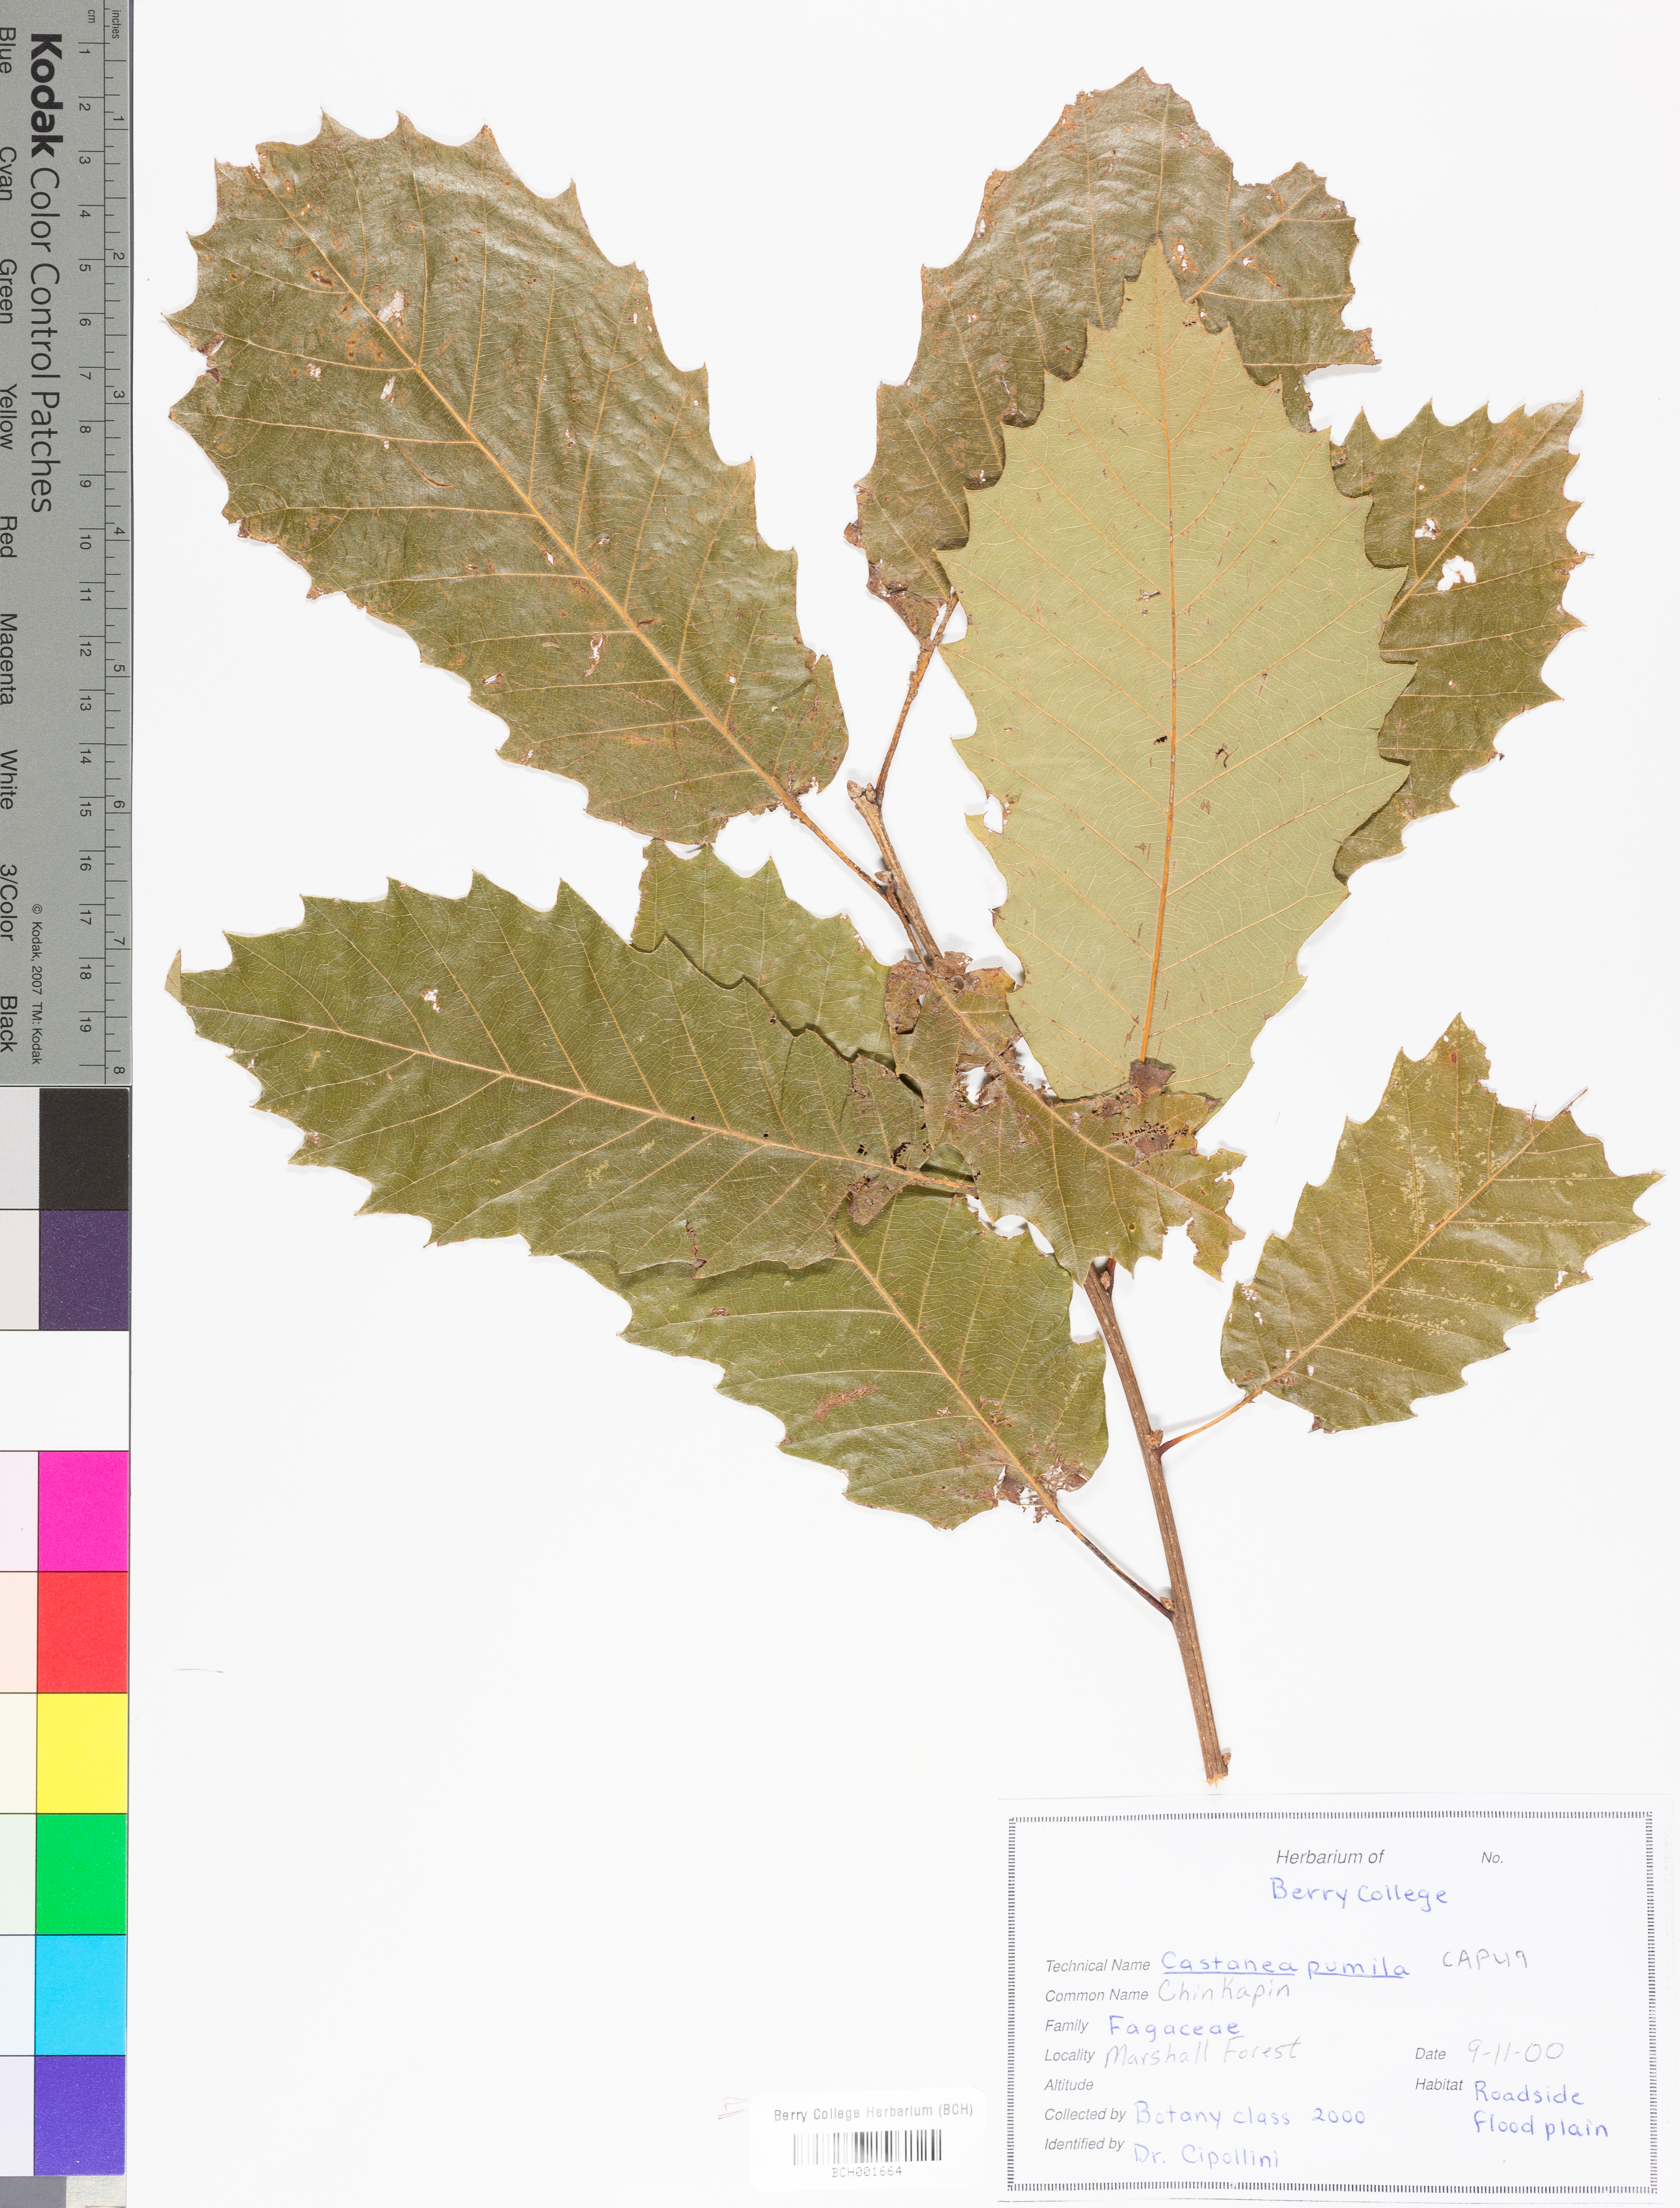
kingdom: Plantae
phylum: Tracheophyta
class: Magnoliopsida
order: Fagales
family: Fagaceae
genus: Castanea
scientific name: Castanea pumila
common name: Chinkapin
